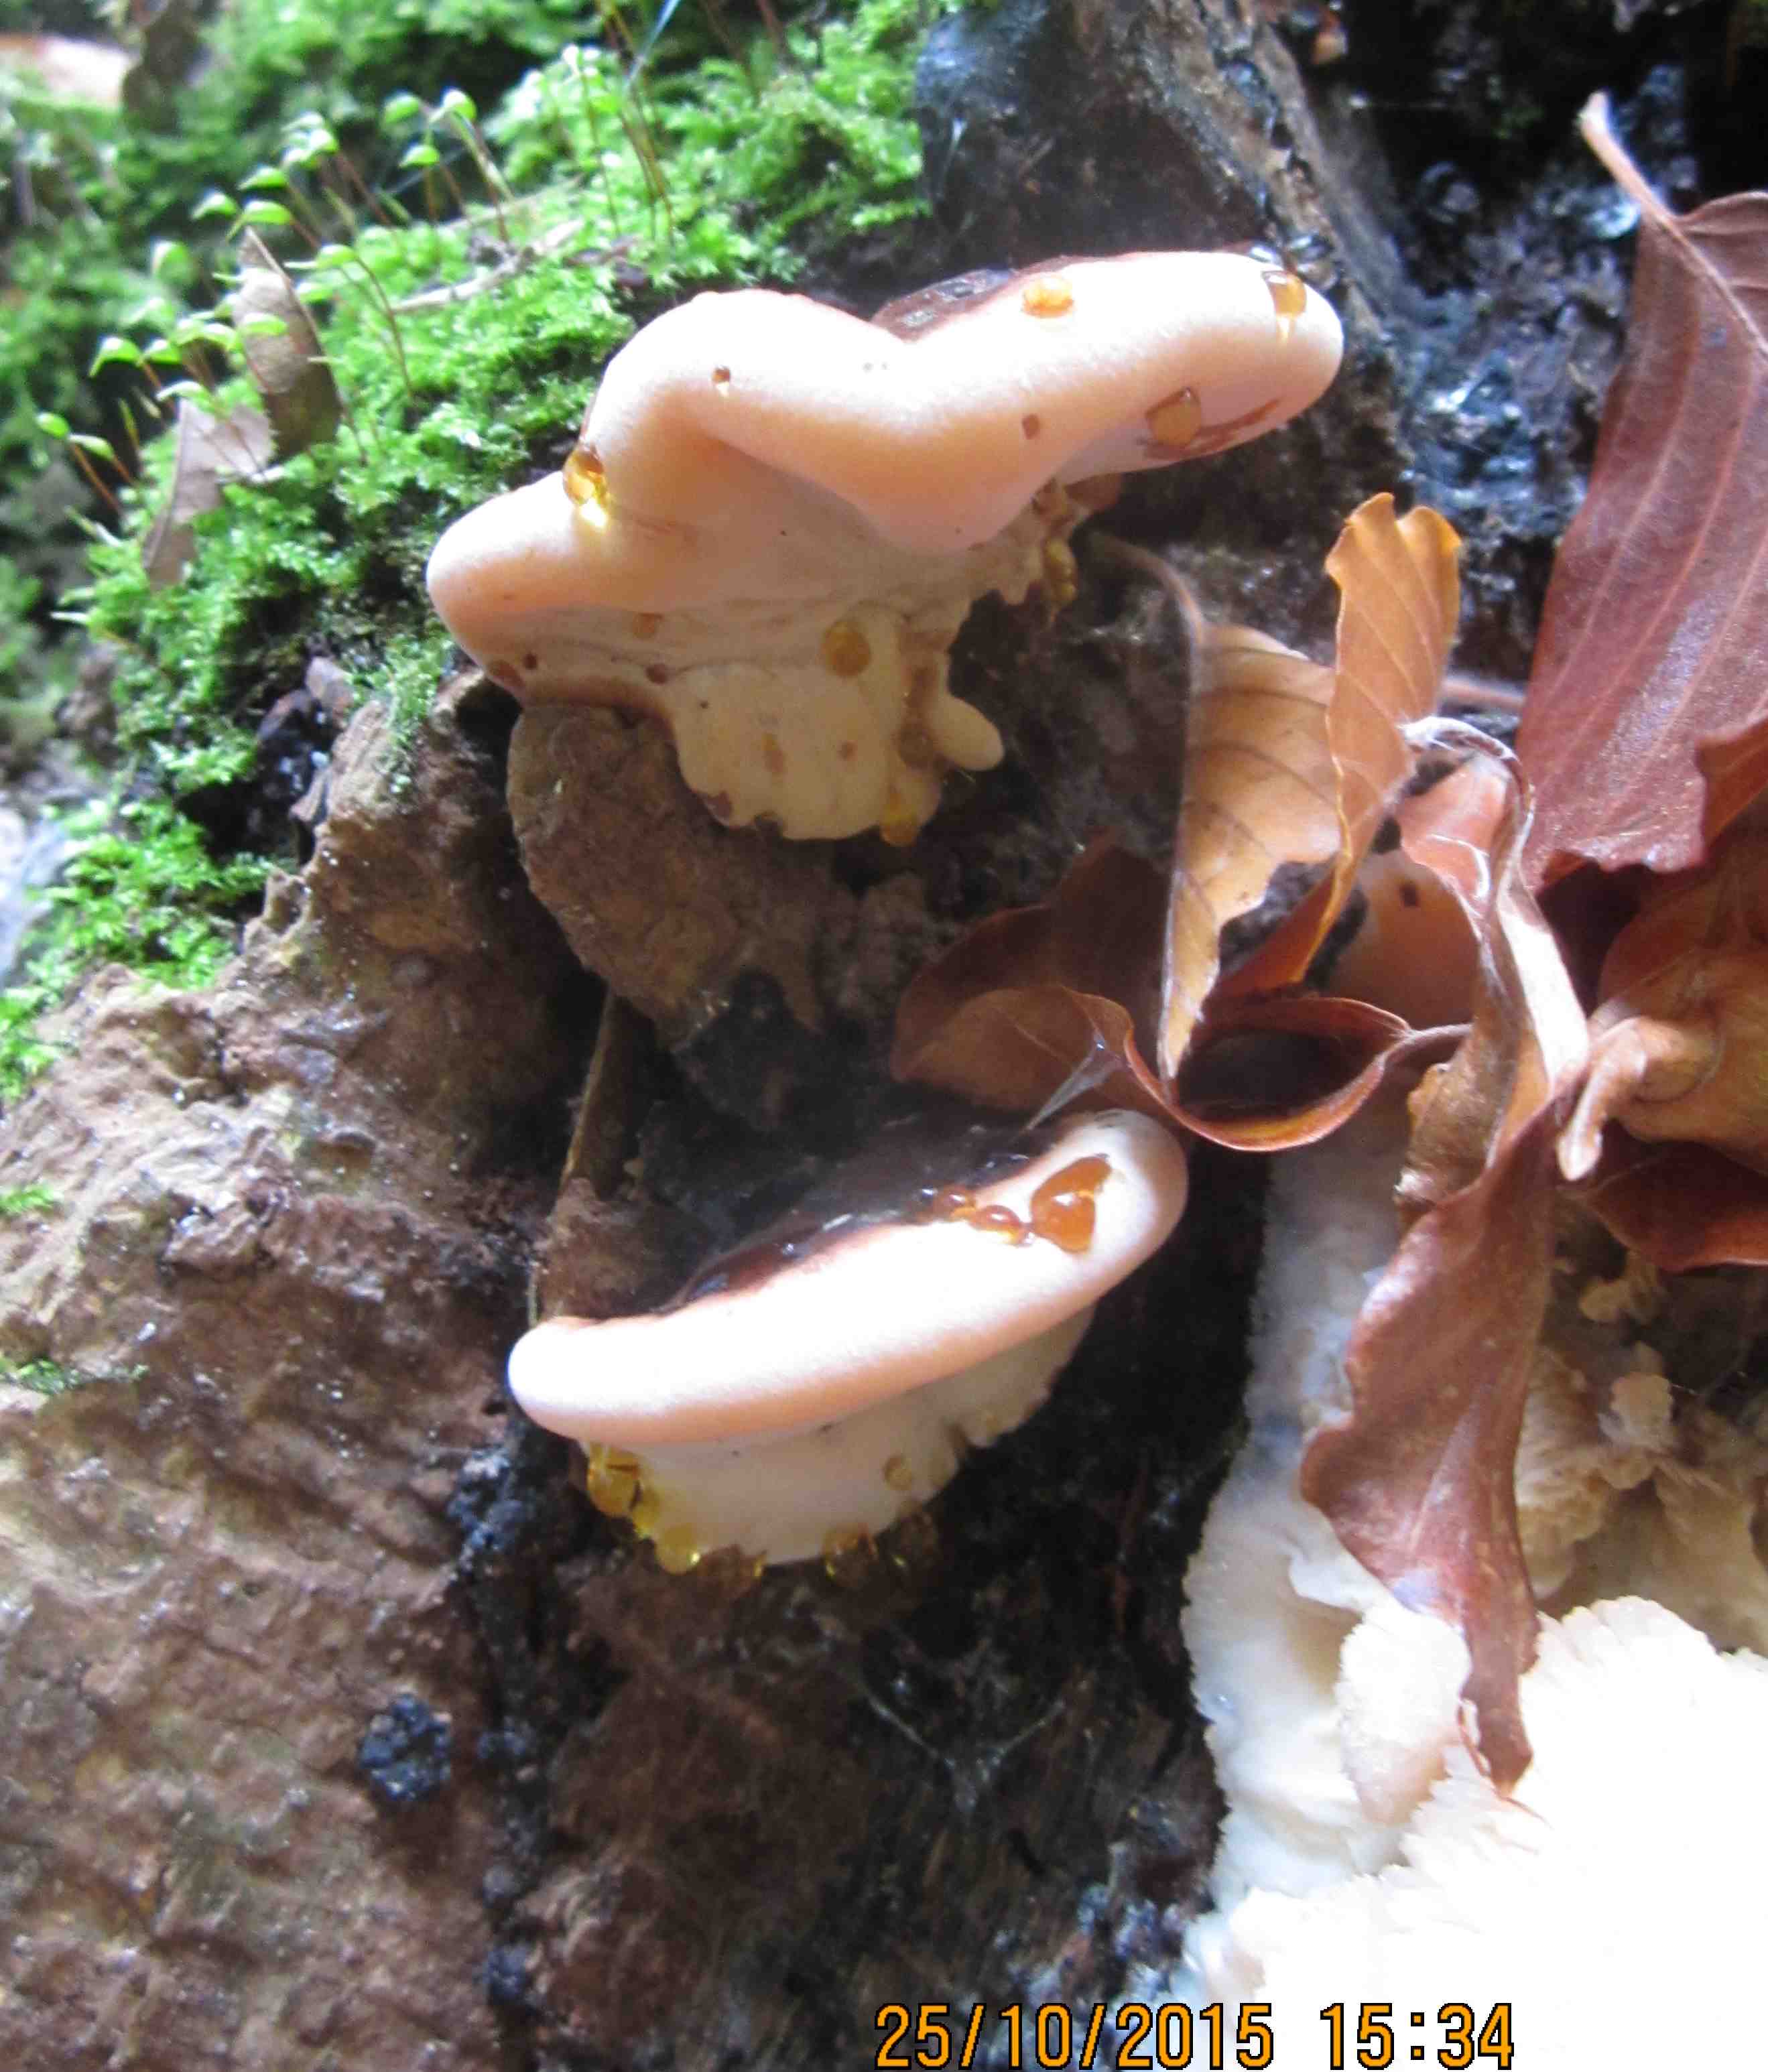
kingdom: Fungi
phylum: Basidiomycota
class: Agaricomycetes
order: Polyporales
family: Ischnodermataceae
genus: Ischnoderma
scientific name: Ischnoderma resinosum
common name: løv-tjæreporesvamp
